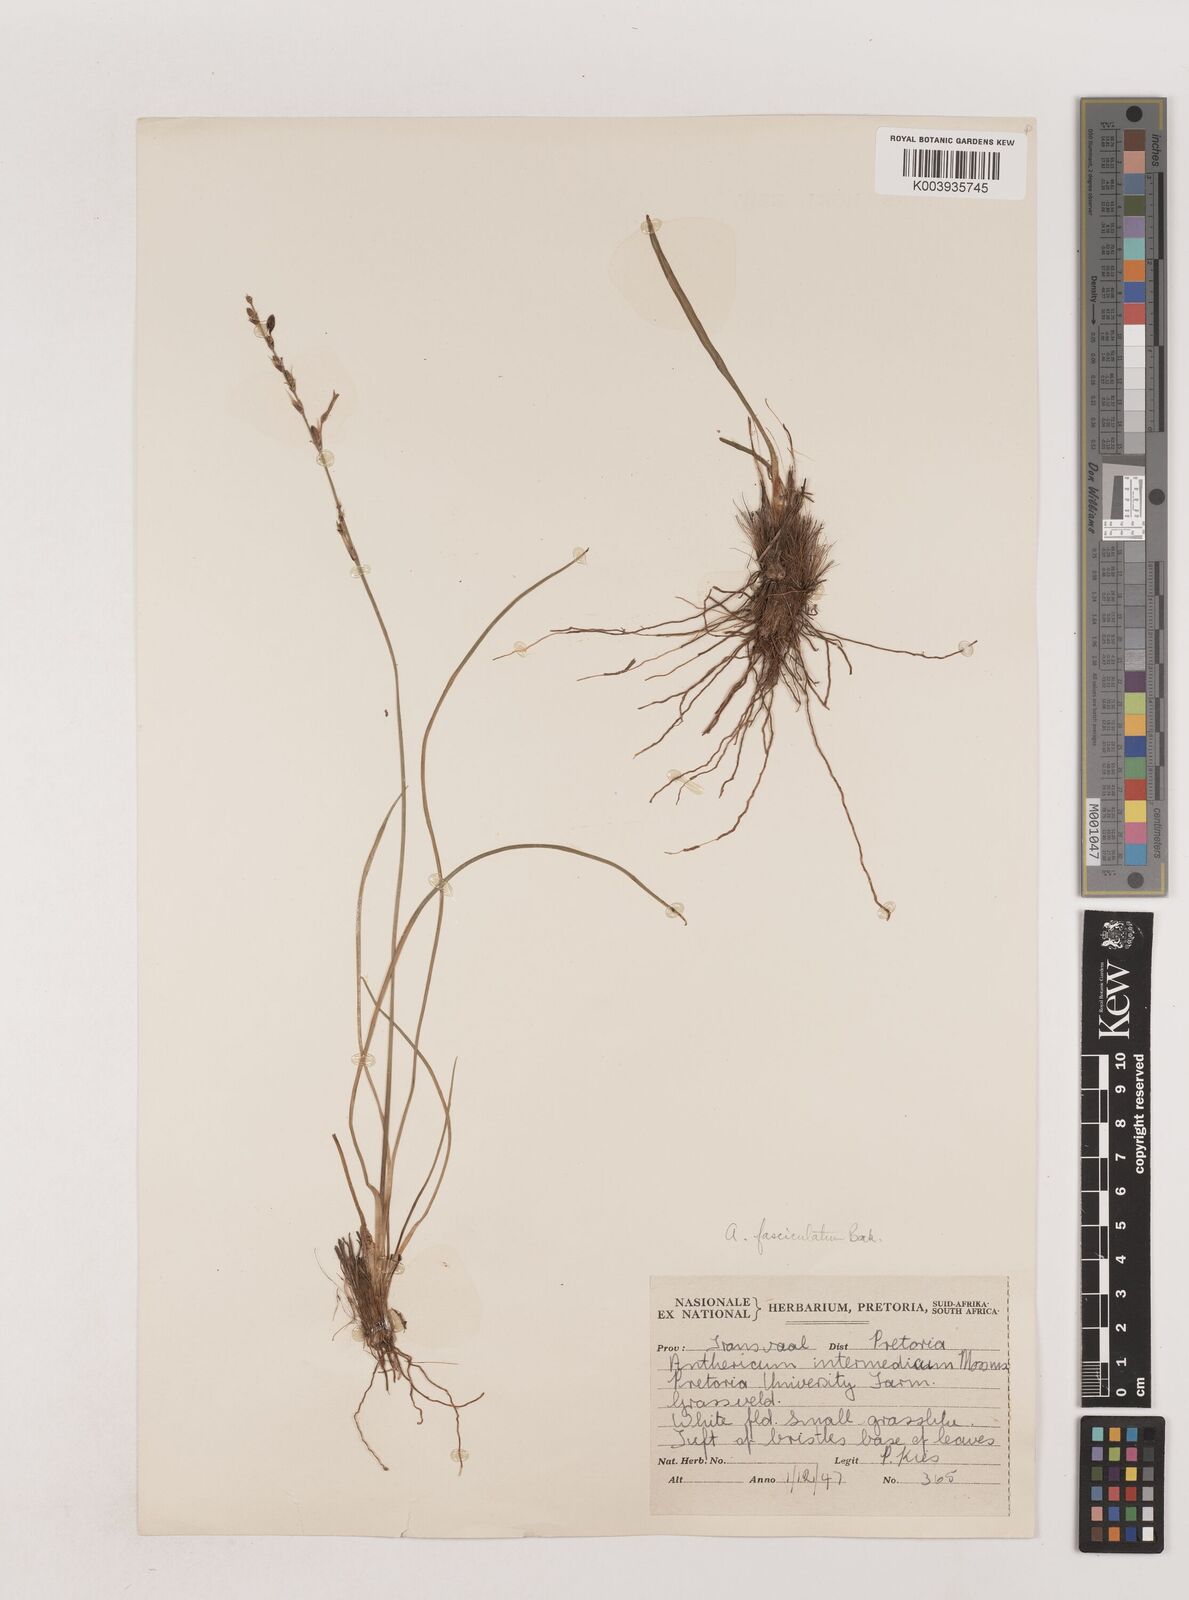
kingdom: Plantae
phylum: Tracheophyta
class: Liliopsida
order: Asparagales
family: Asparagaceae
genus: Chlorophytum
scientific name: Chlorophytum fasciculatum
